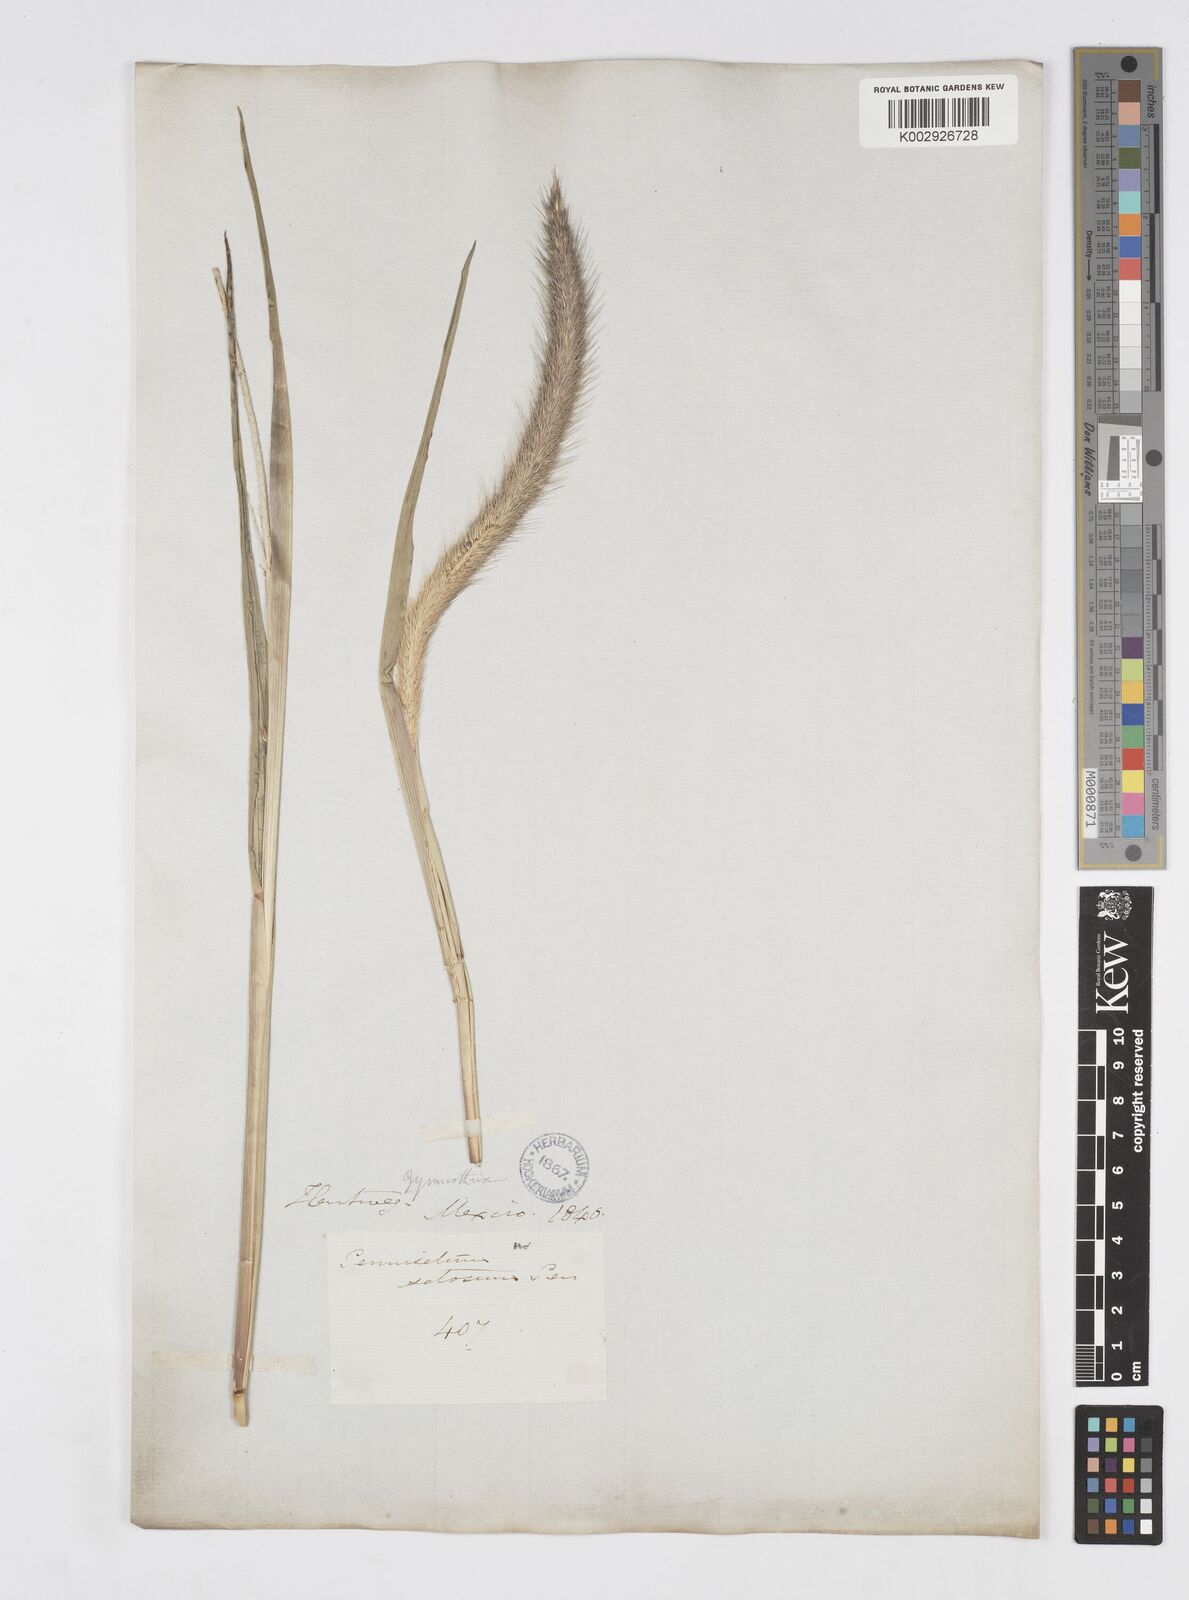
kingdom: Plantae
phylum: Tracheophyta
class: Liliopsida
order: Poales
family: Poaceae
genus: Cenchrus
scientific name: Cenchrus michoacanus
